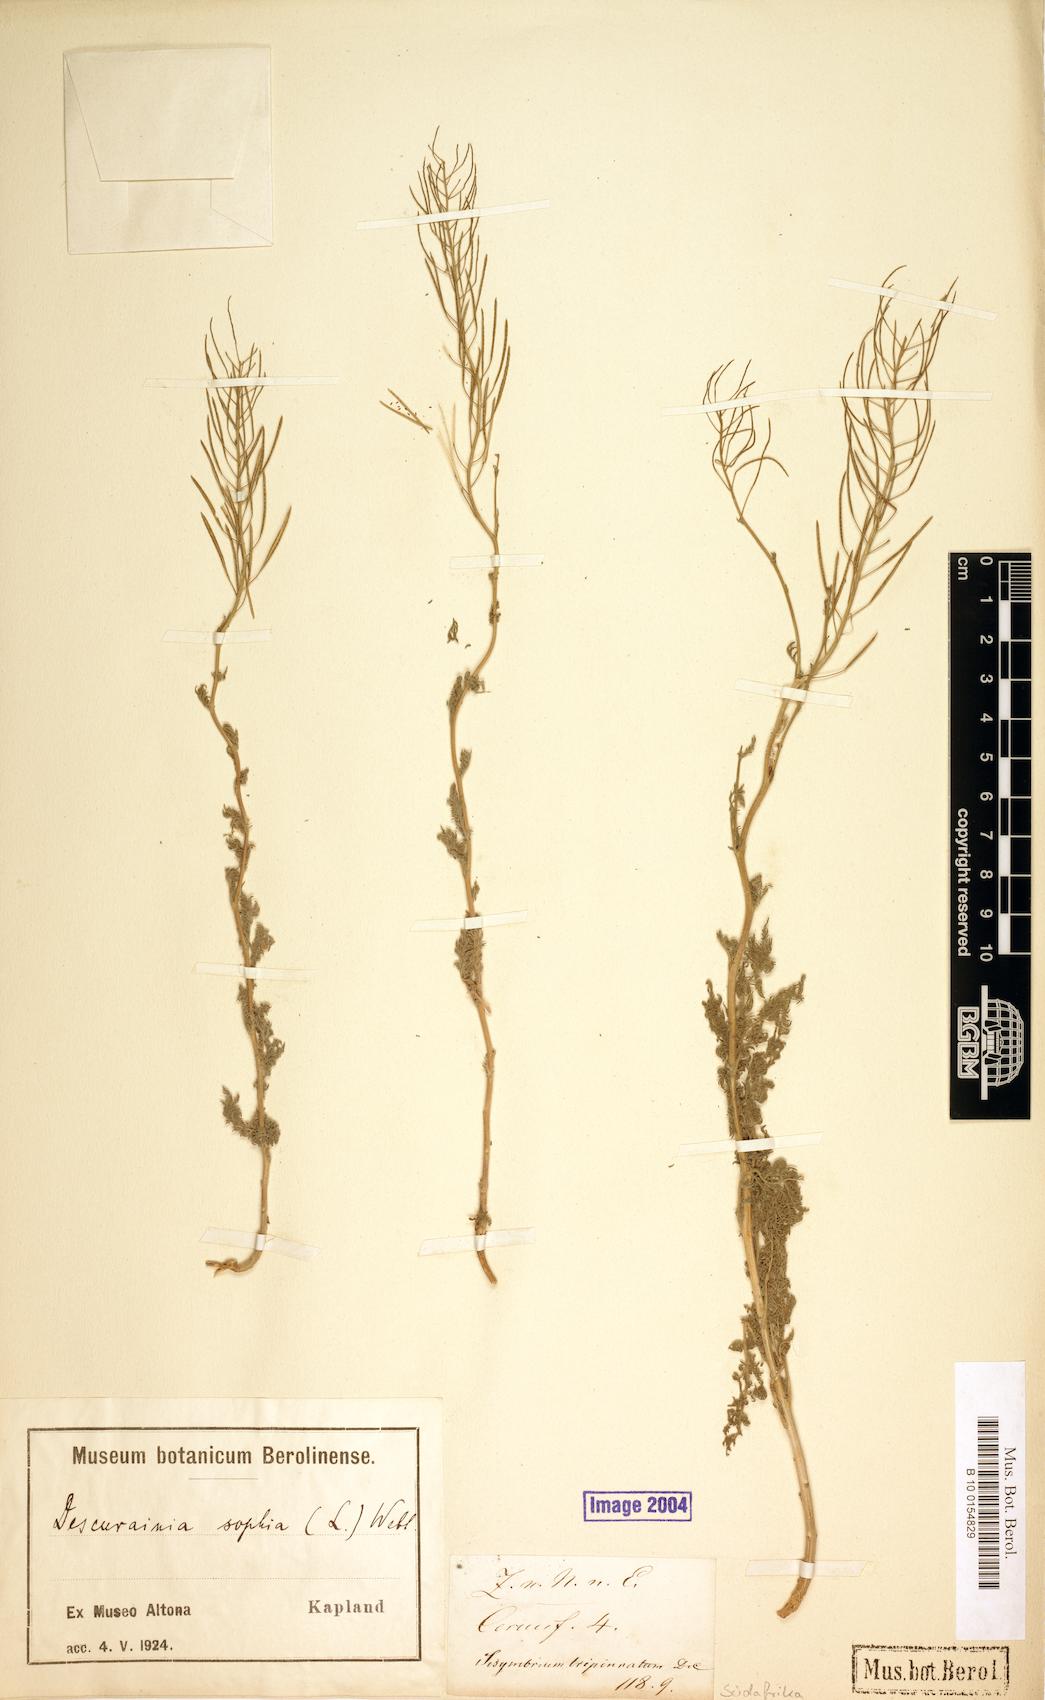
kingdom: Plantae
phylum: Tracheophyta
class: Magnoliopsida
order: Brassicales
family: Brassicaceae
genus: Descurainia
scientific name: Descurainia sophia
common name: Flixweed
